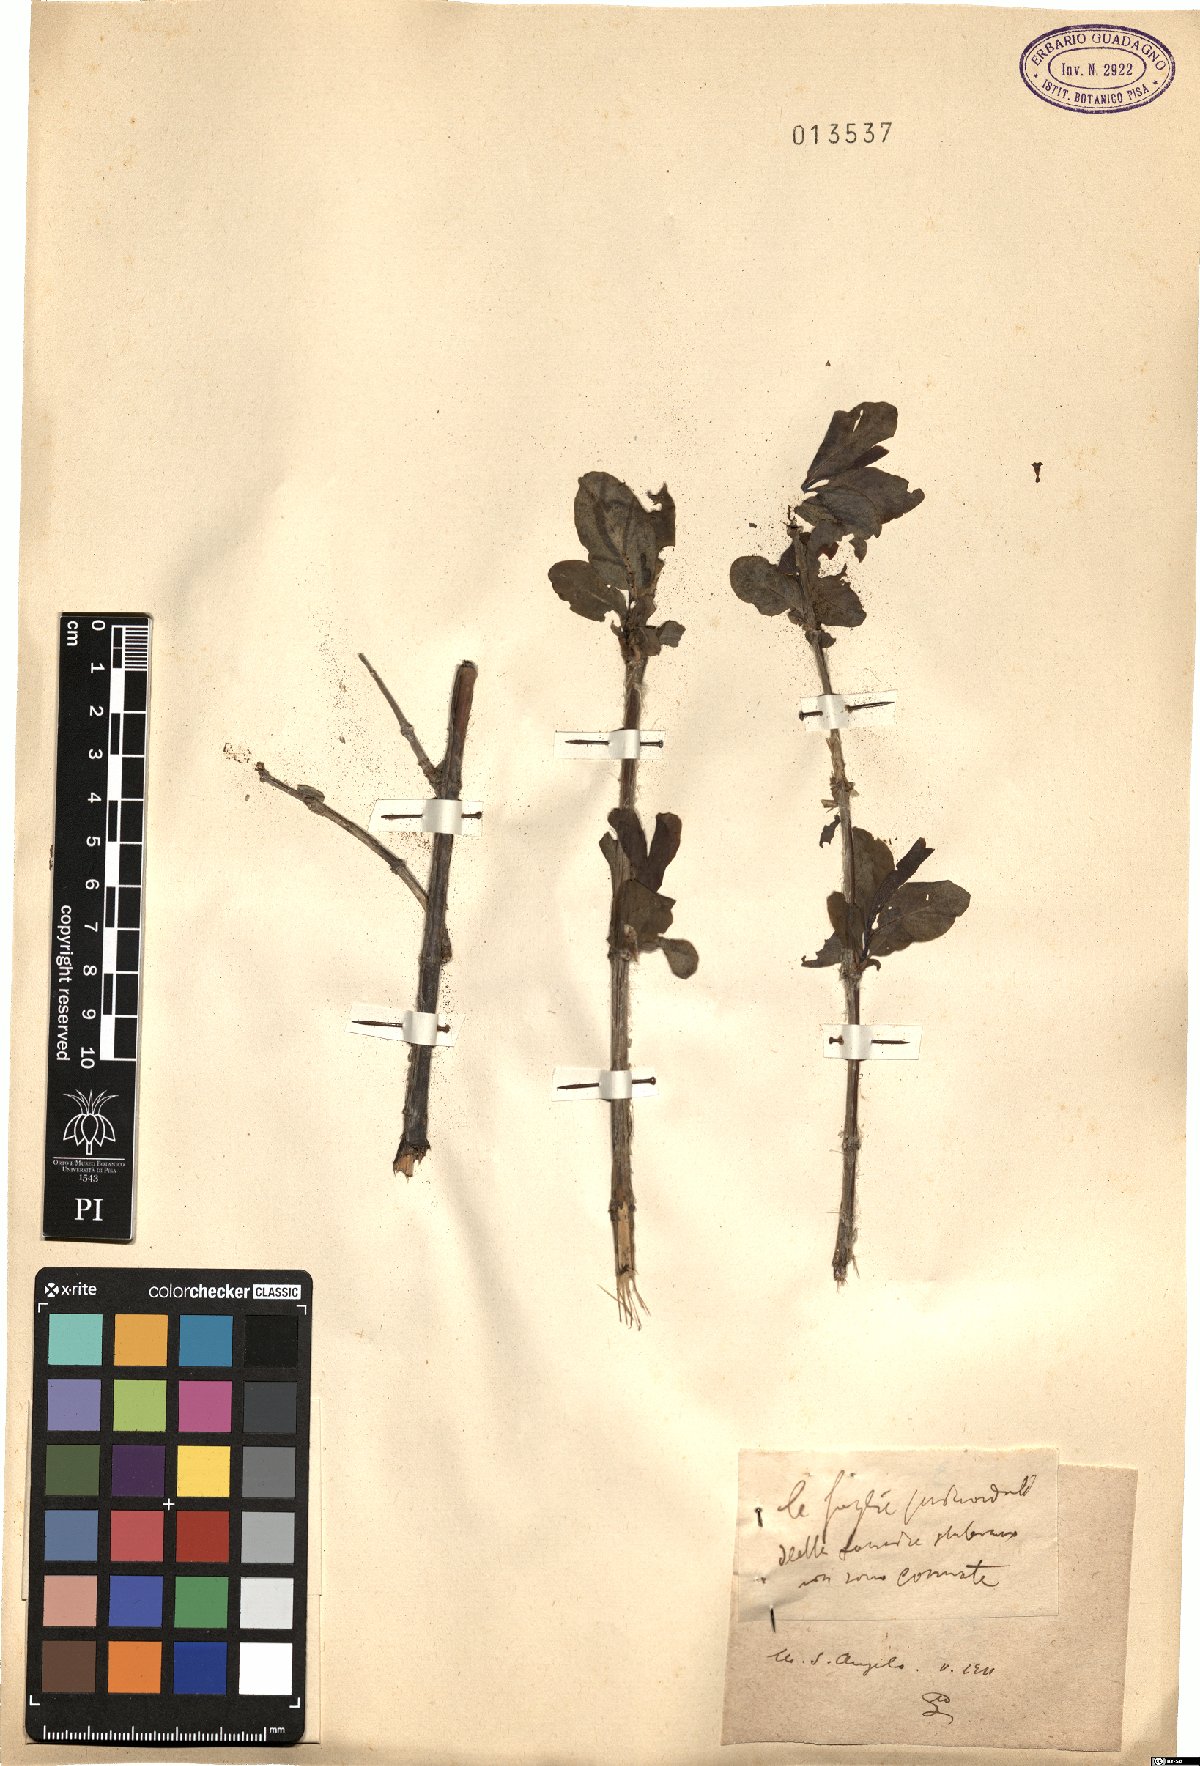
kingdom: Plantae
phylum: Tracheophyta
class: Magnoliopsida
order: Dipsacales
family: Caprifoliaceae
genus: Lonicera
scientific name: Lonicera
